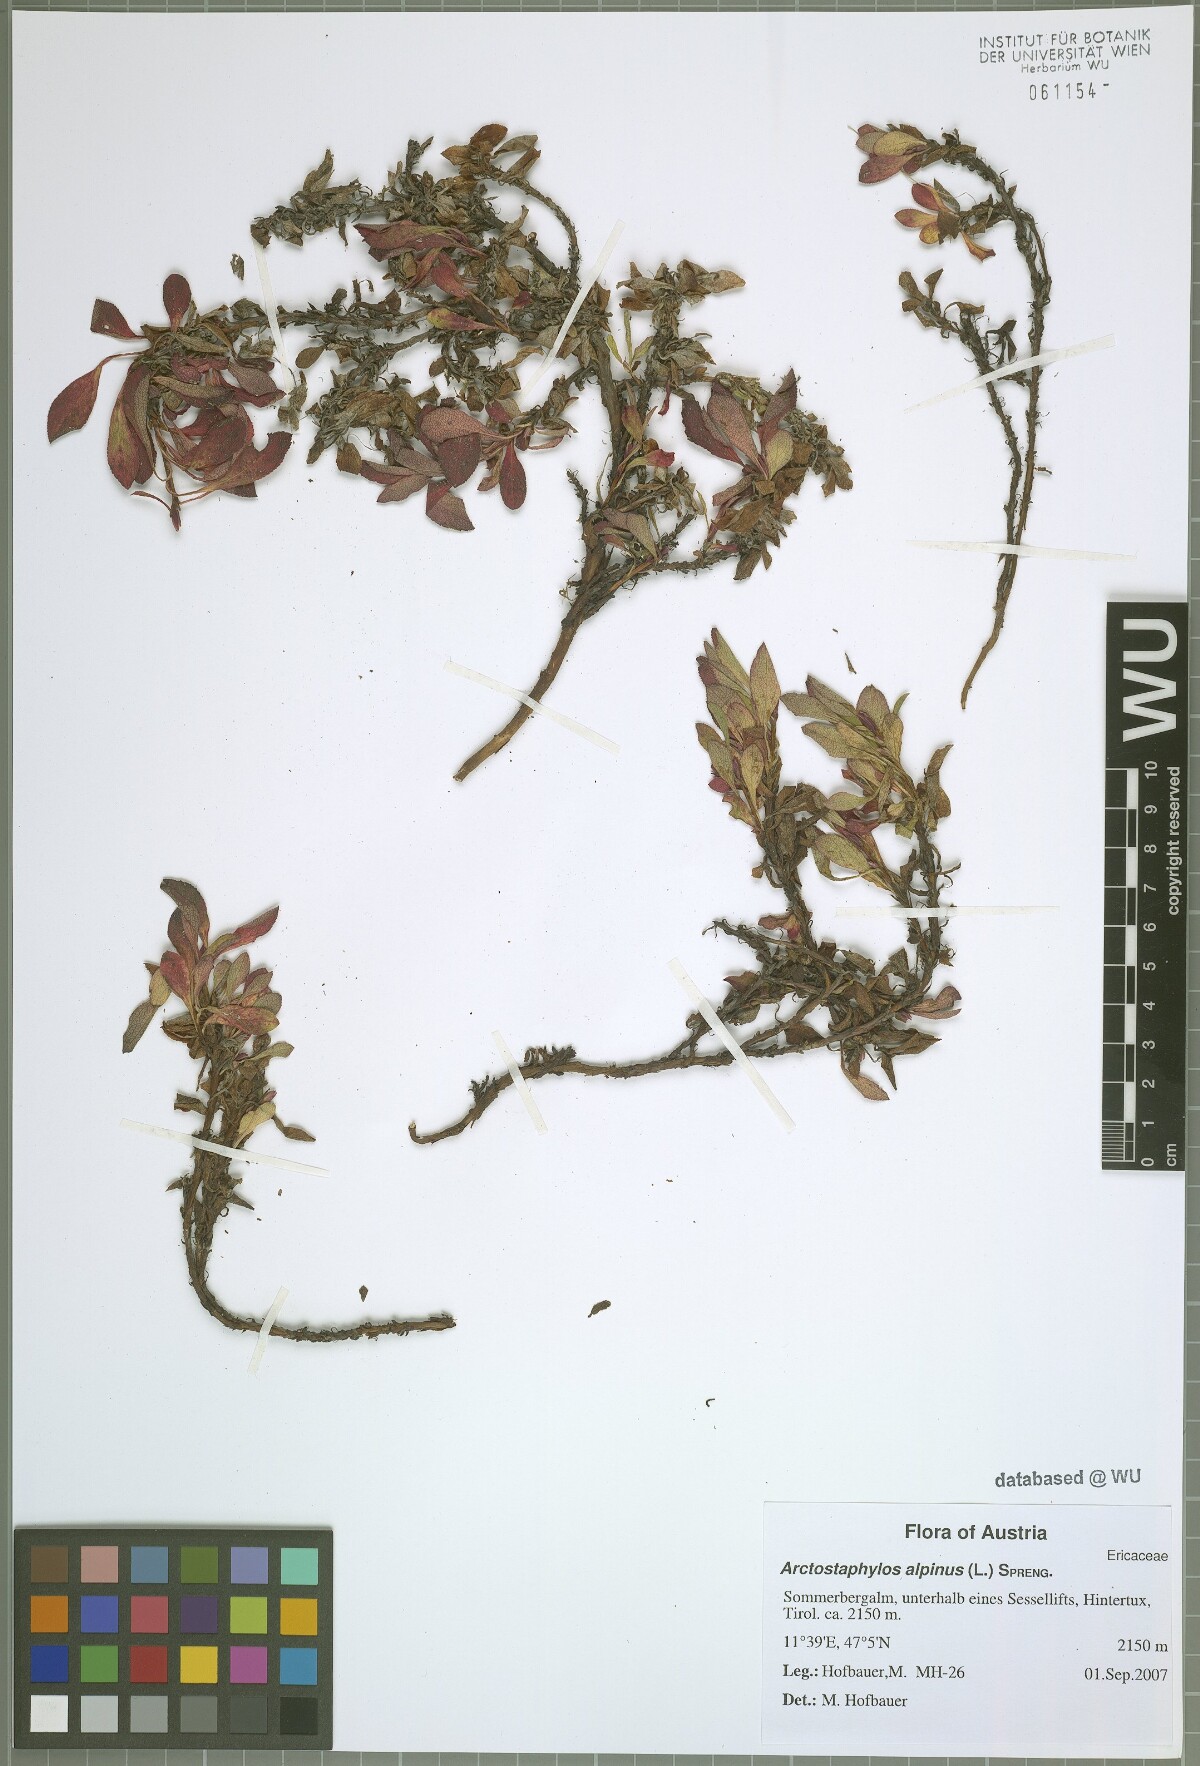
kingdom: Plantae
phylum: Tracheophyta
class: Magnoliopsida
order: Ericales
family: Ericaceae
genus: Arctostaphylos
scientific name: Arctostaphylos alpinus
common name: Alpine bearberry
